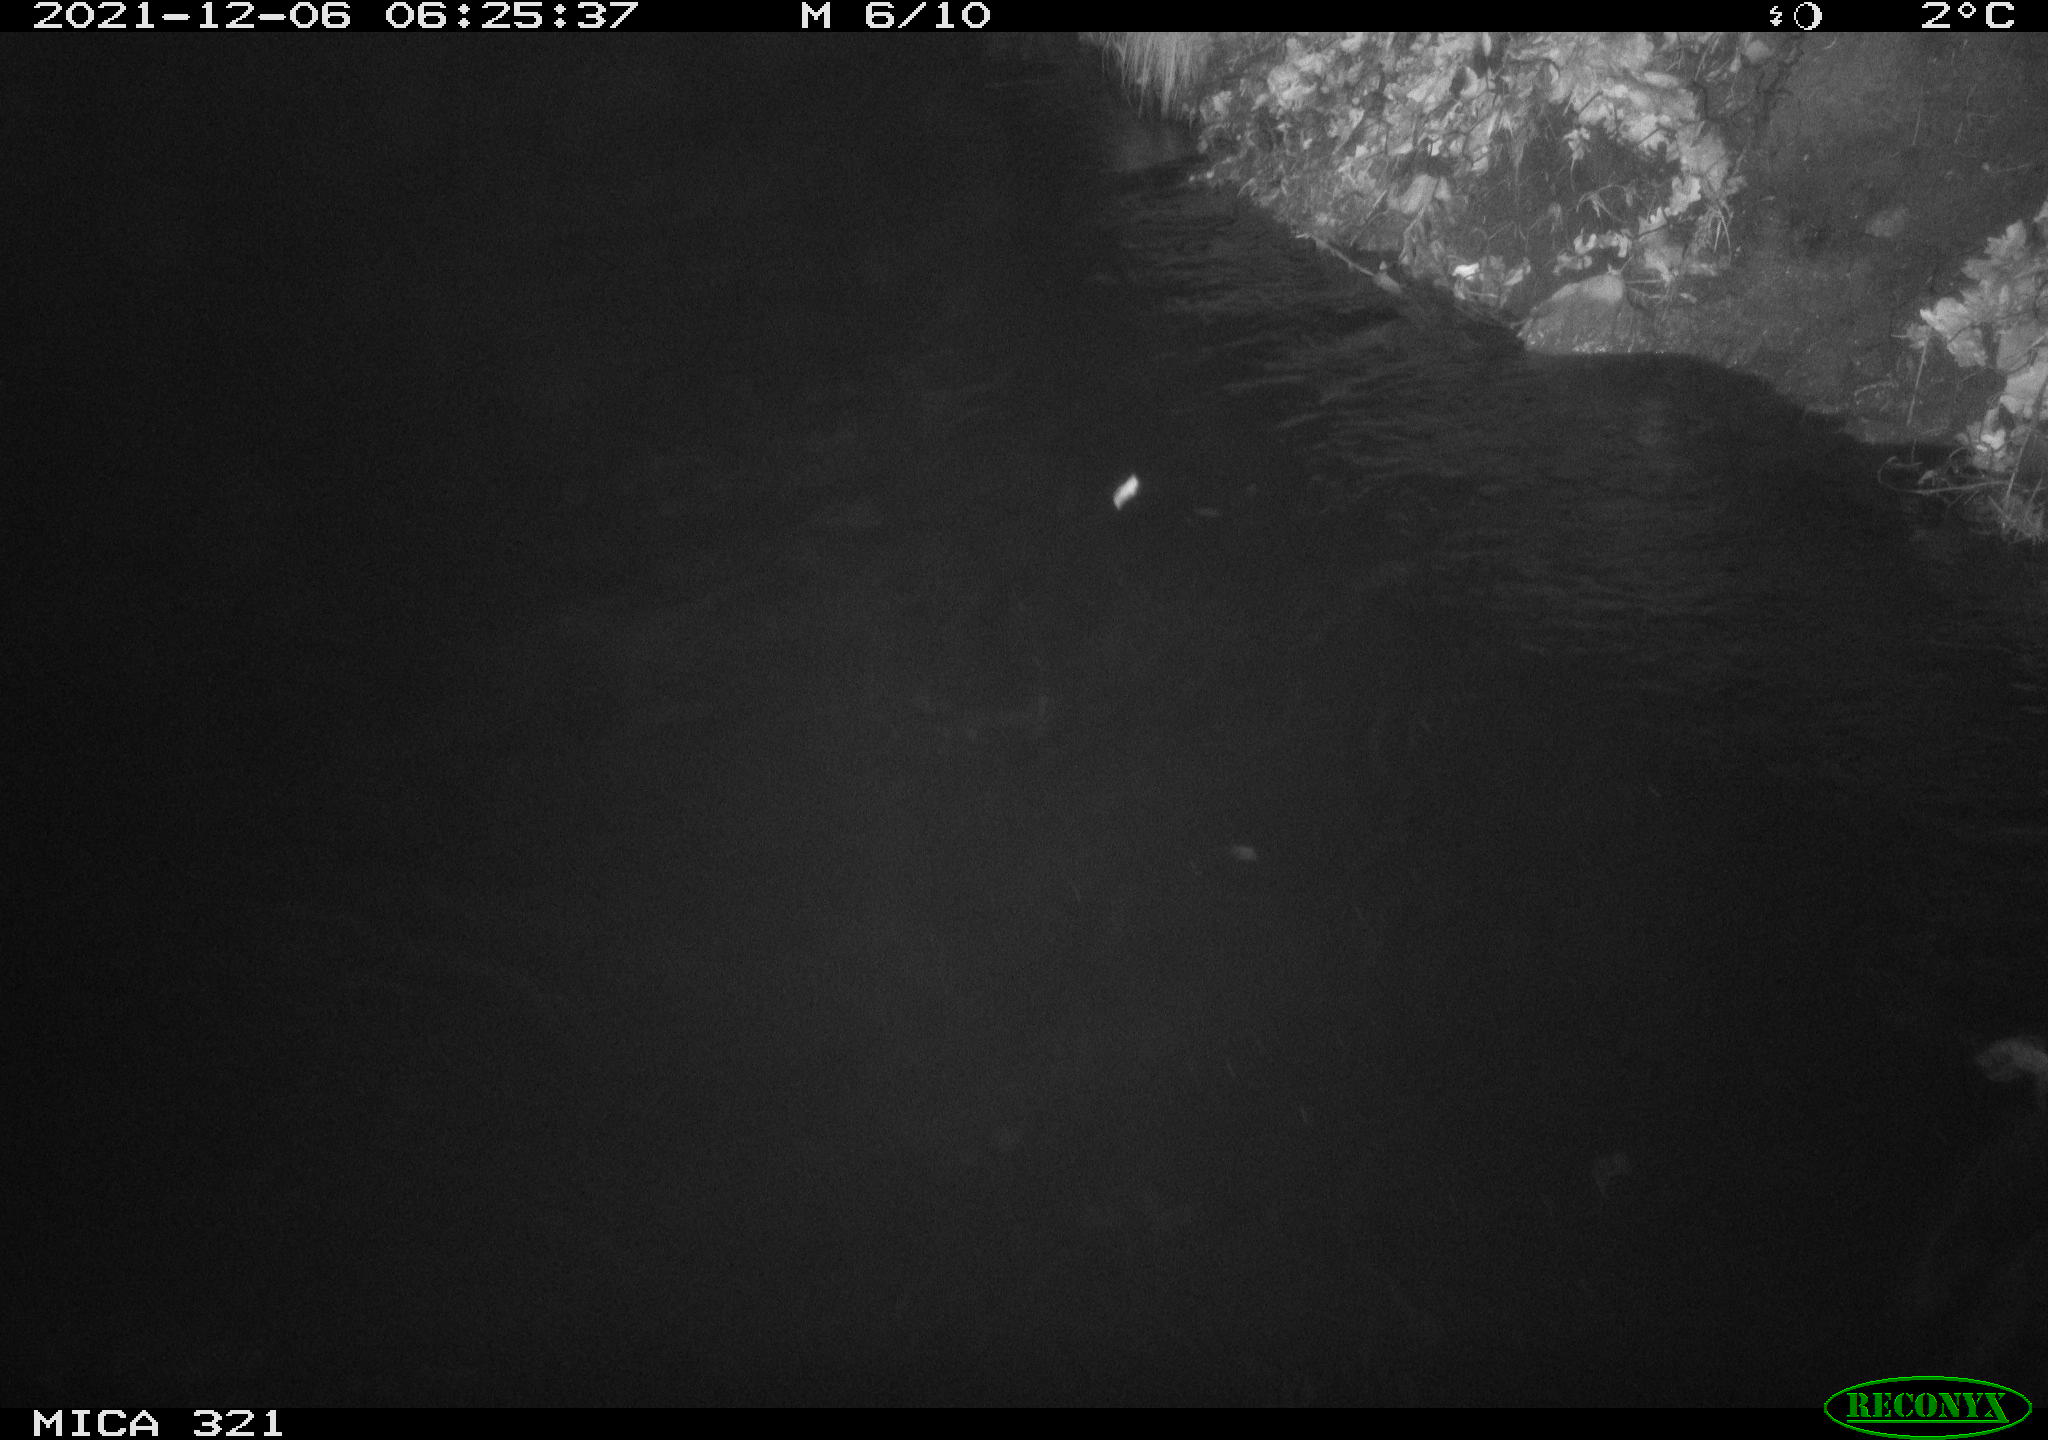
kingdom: Animalia
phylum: Chordata
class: Mammalia
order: Rodentia
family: Muridae
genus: Rattus
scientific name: Rattus norvegicus
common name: Brown rat
